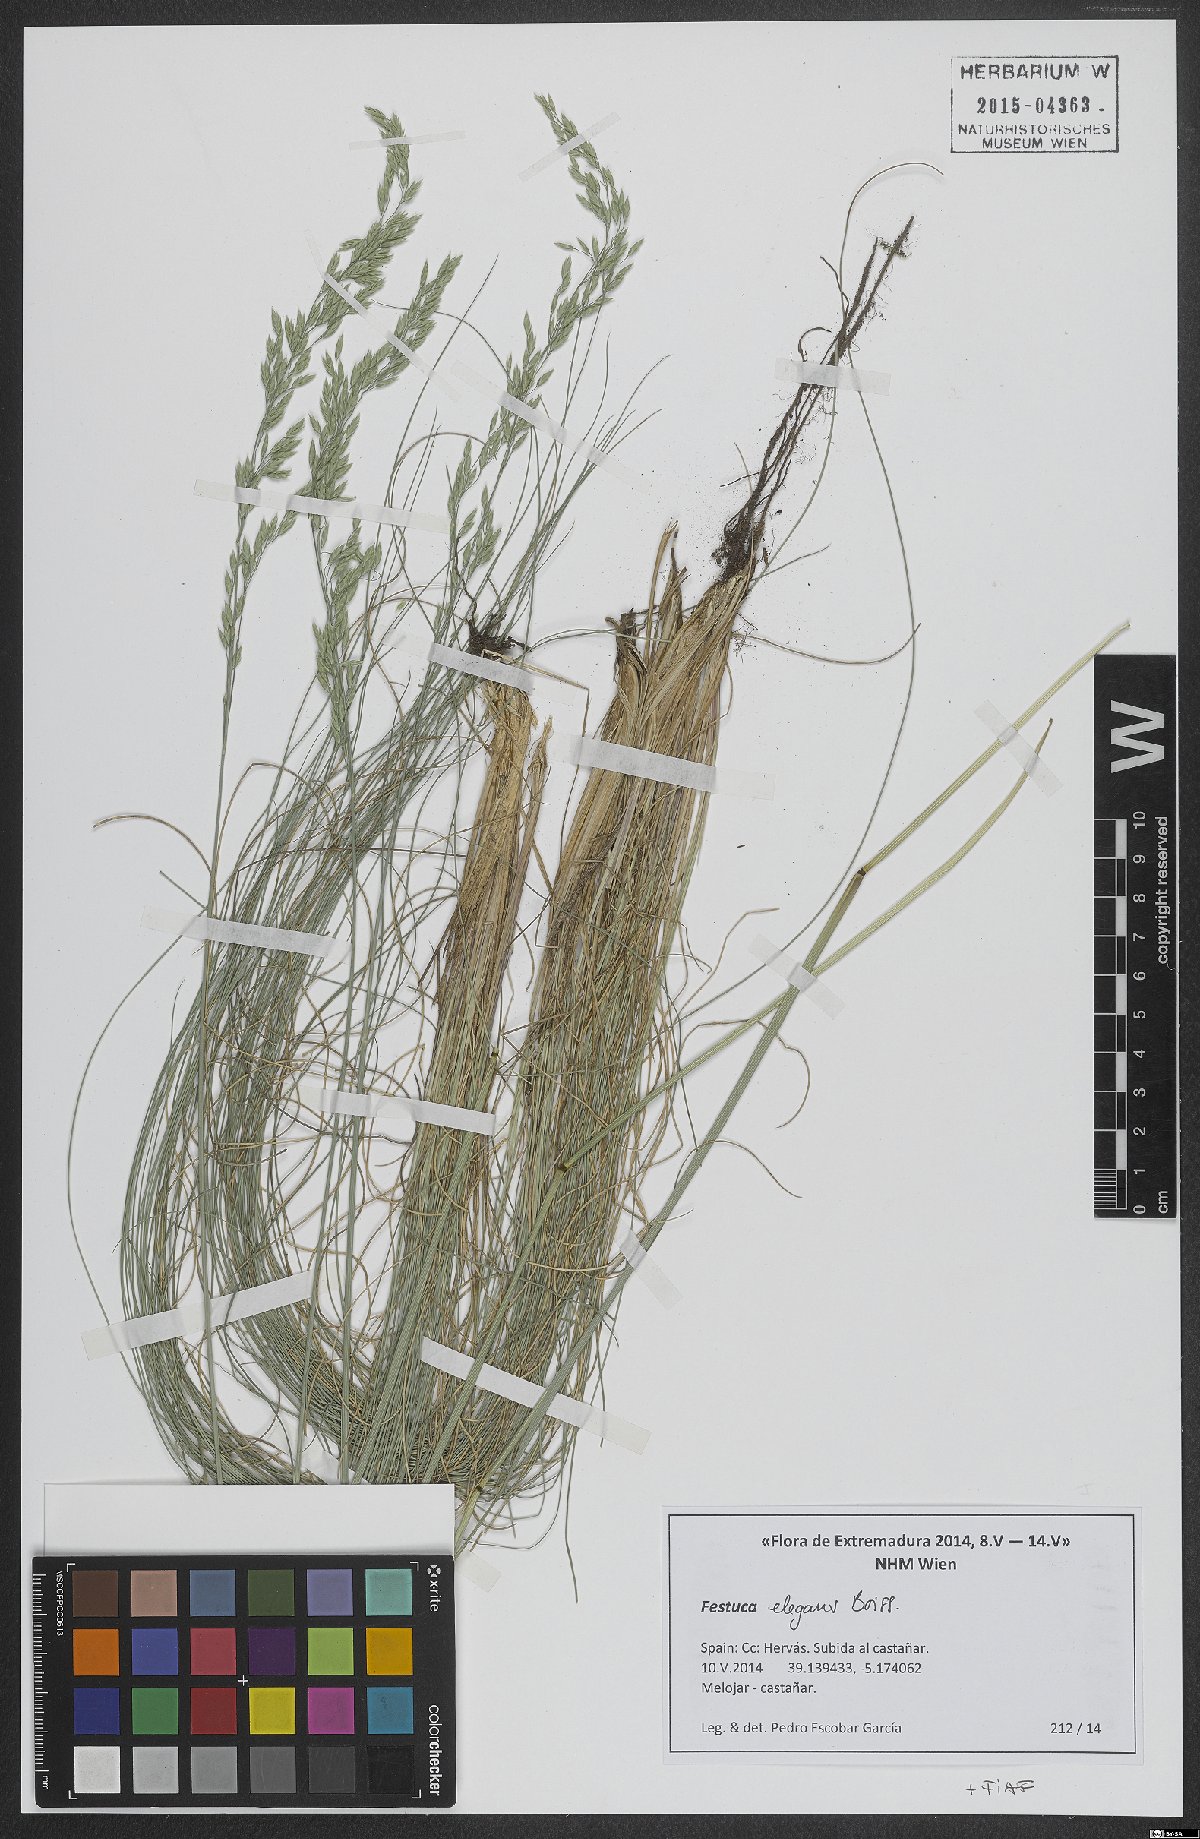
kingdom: Plantae
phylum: Tracheophyta
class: Liliopsida
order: Poales
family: Poaceae
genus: Festuca
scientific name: Festuca elegans
